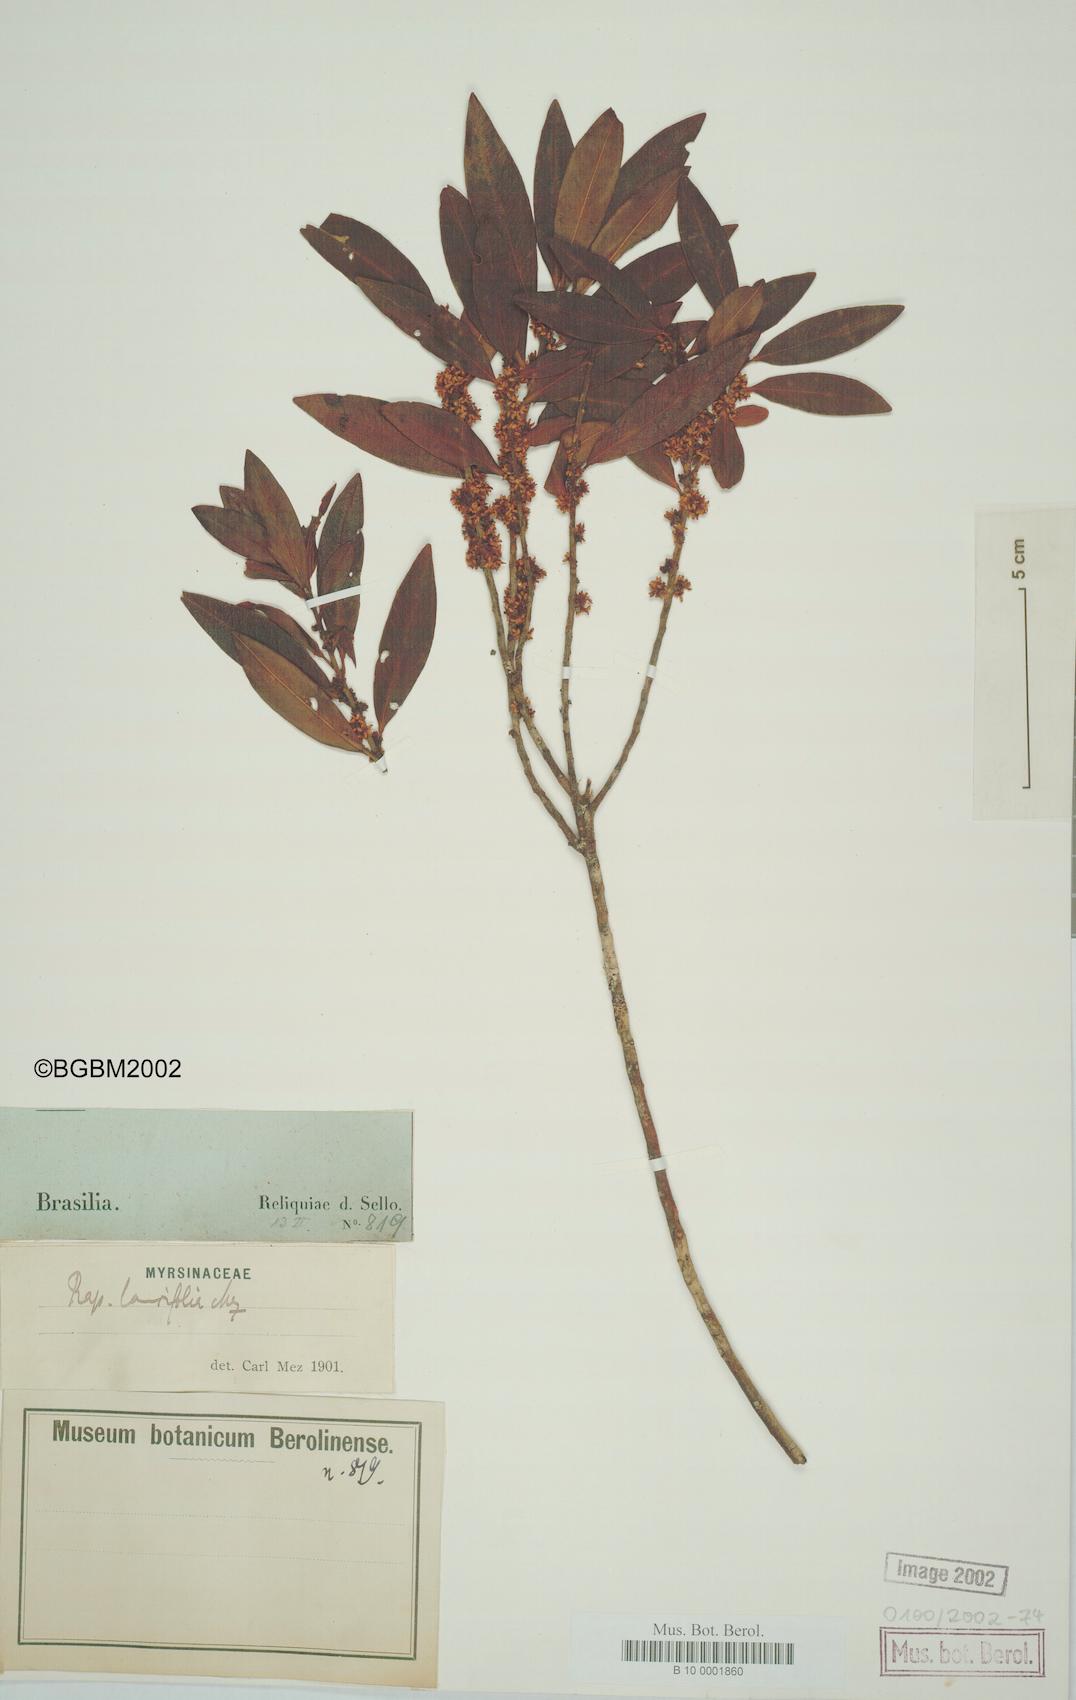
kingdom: Plantae
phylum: Tracheophyta
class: Magnoliopsida
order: Ericales
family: Primulaceae
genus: Myrsine
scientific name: Myrsine latifolia
